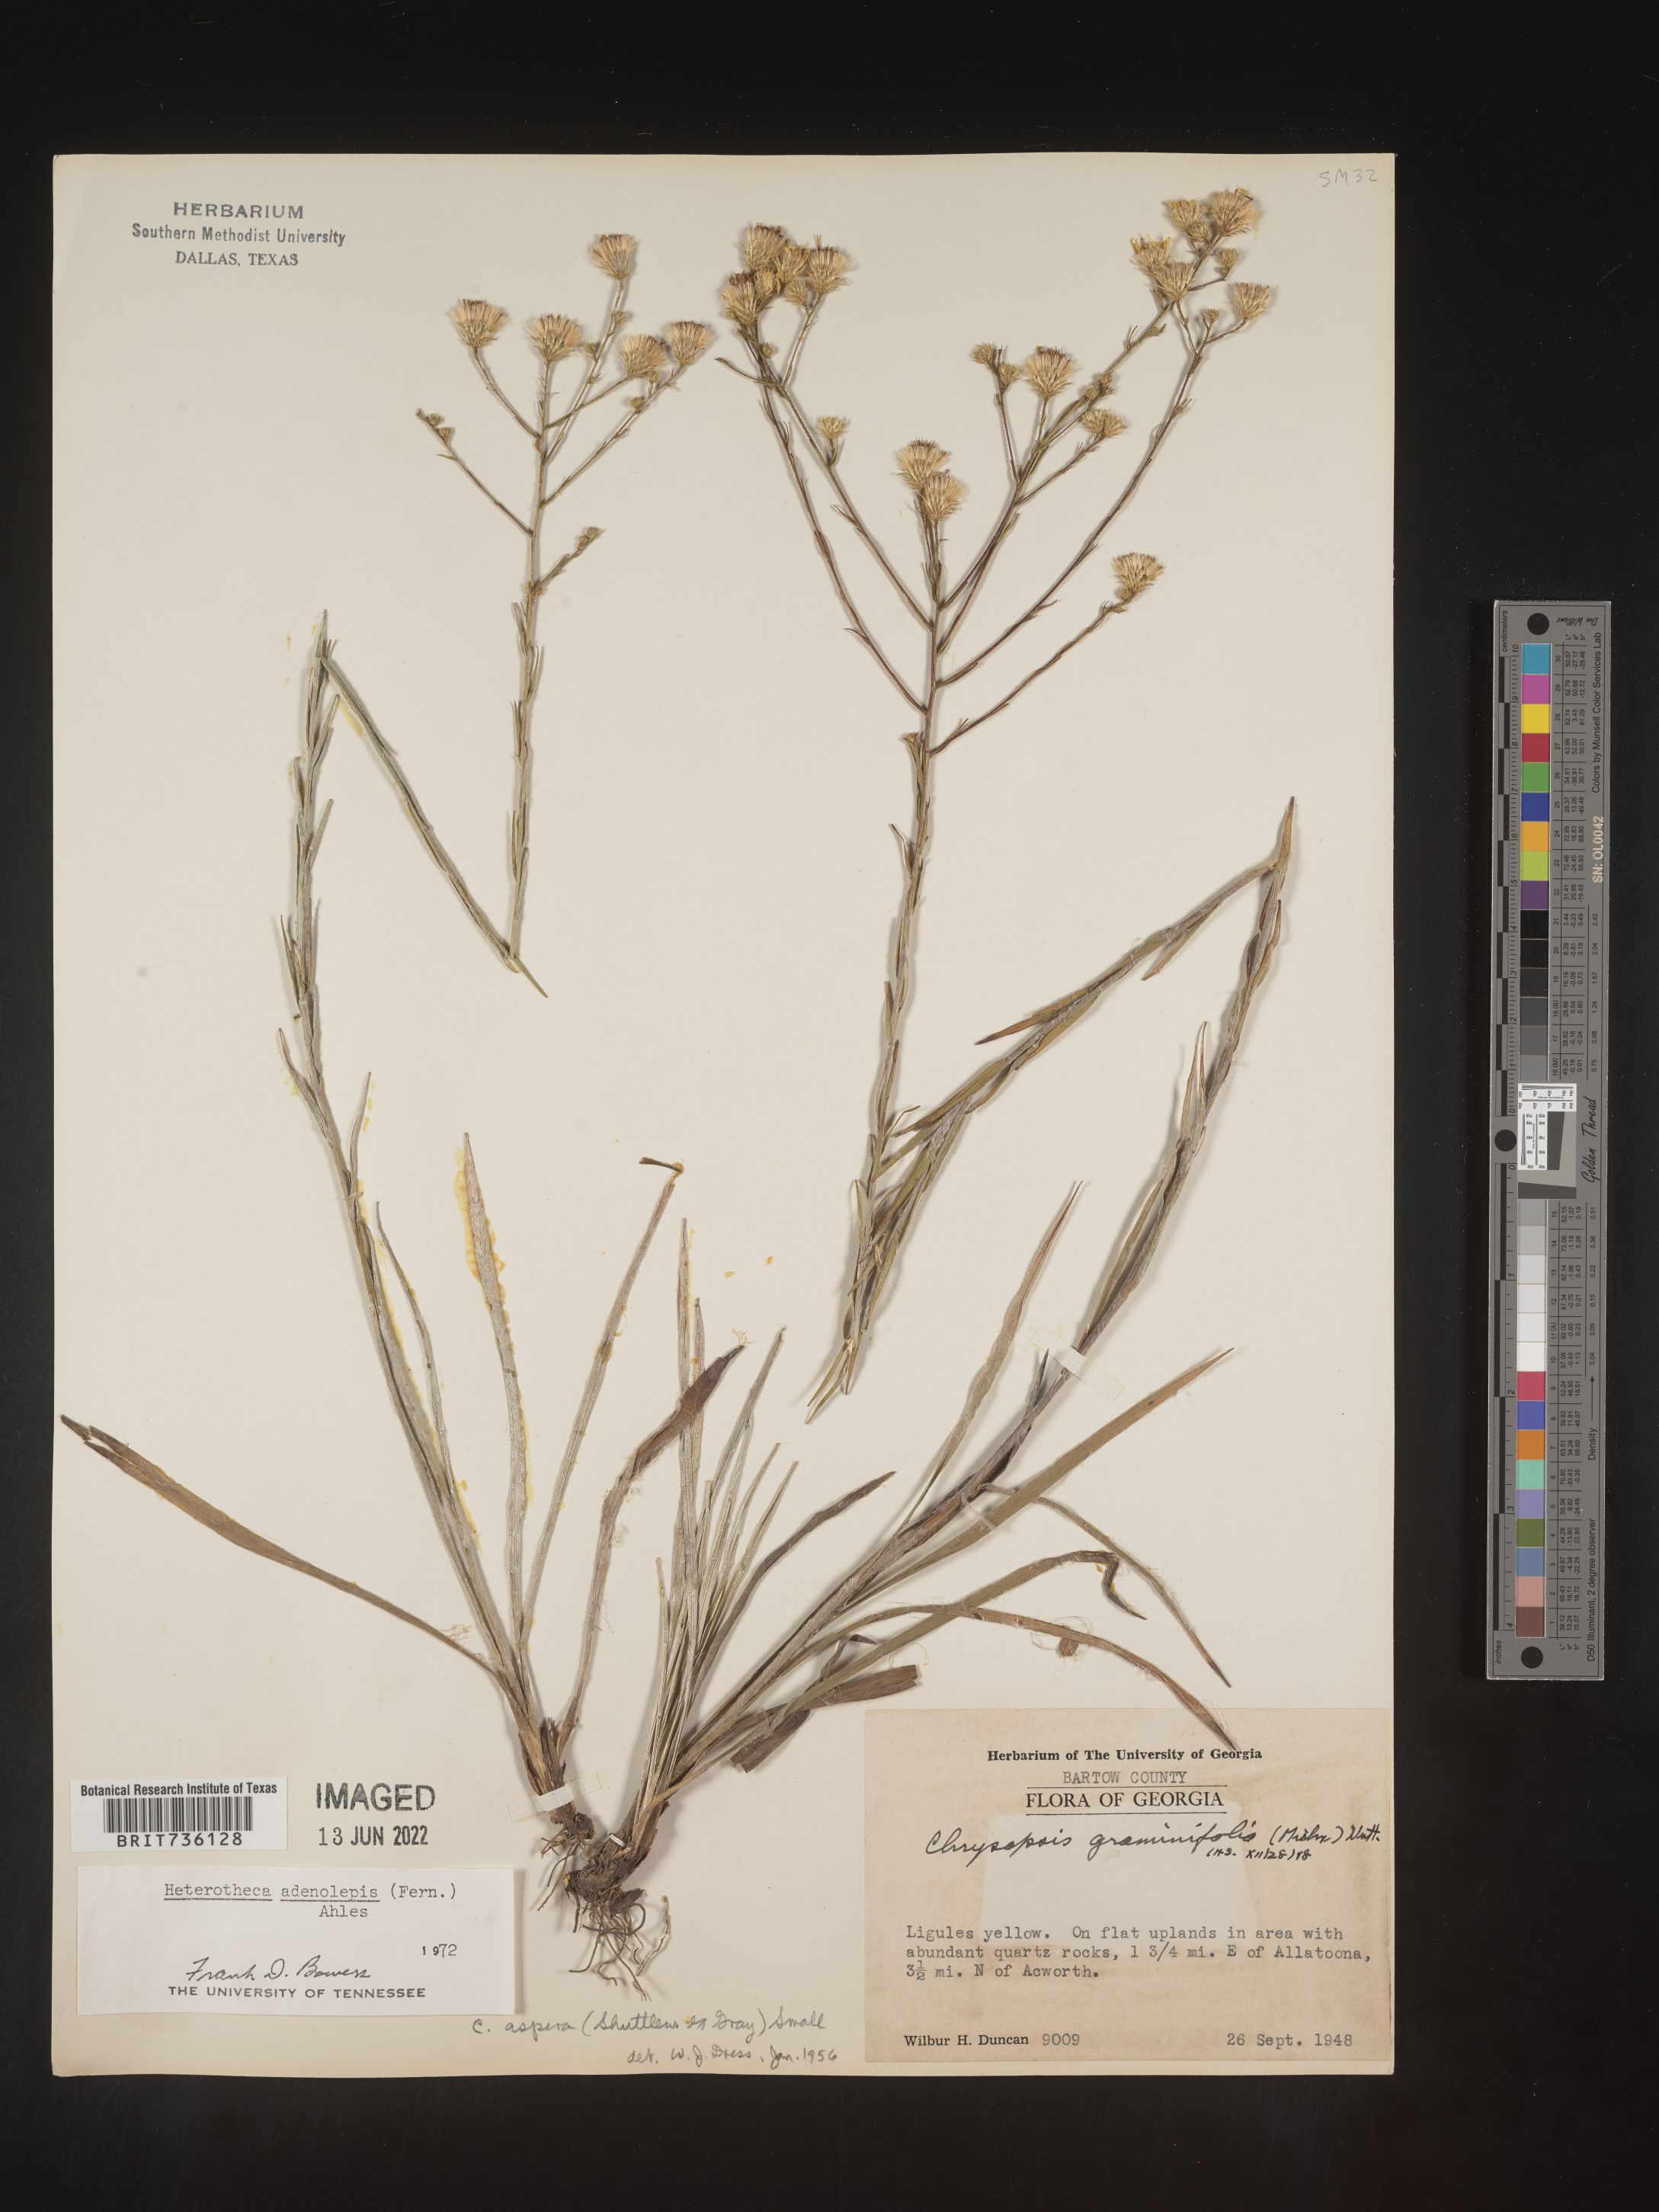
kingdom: Plantae
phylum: Tracheophyta
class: Magnoliopsida
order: Asterales
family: Asteraceae
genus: Pityopsis
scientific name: Pityopsis aspera
